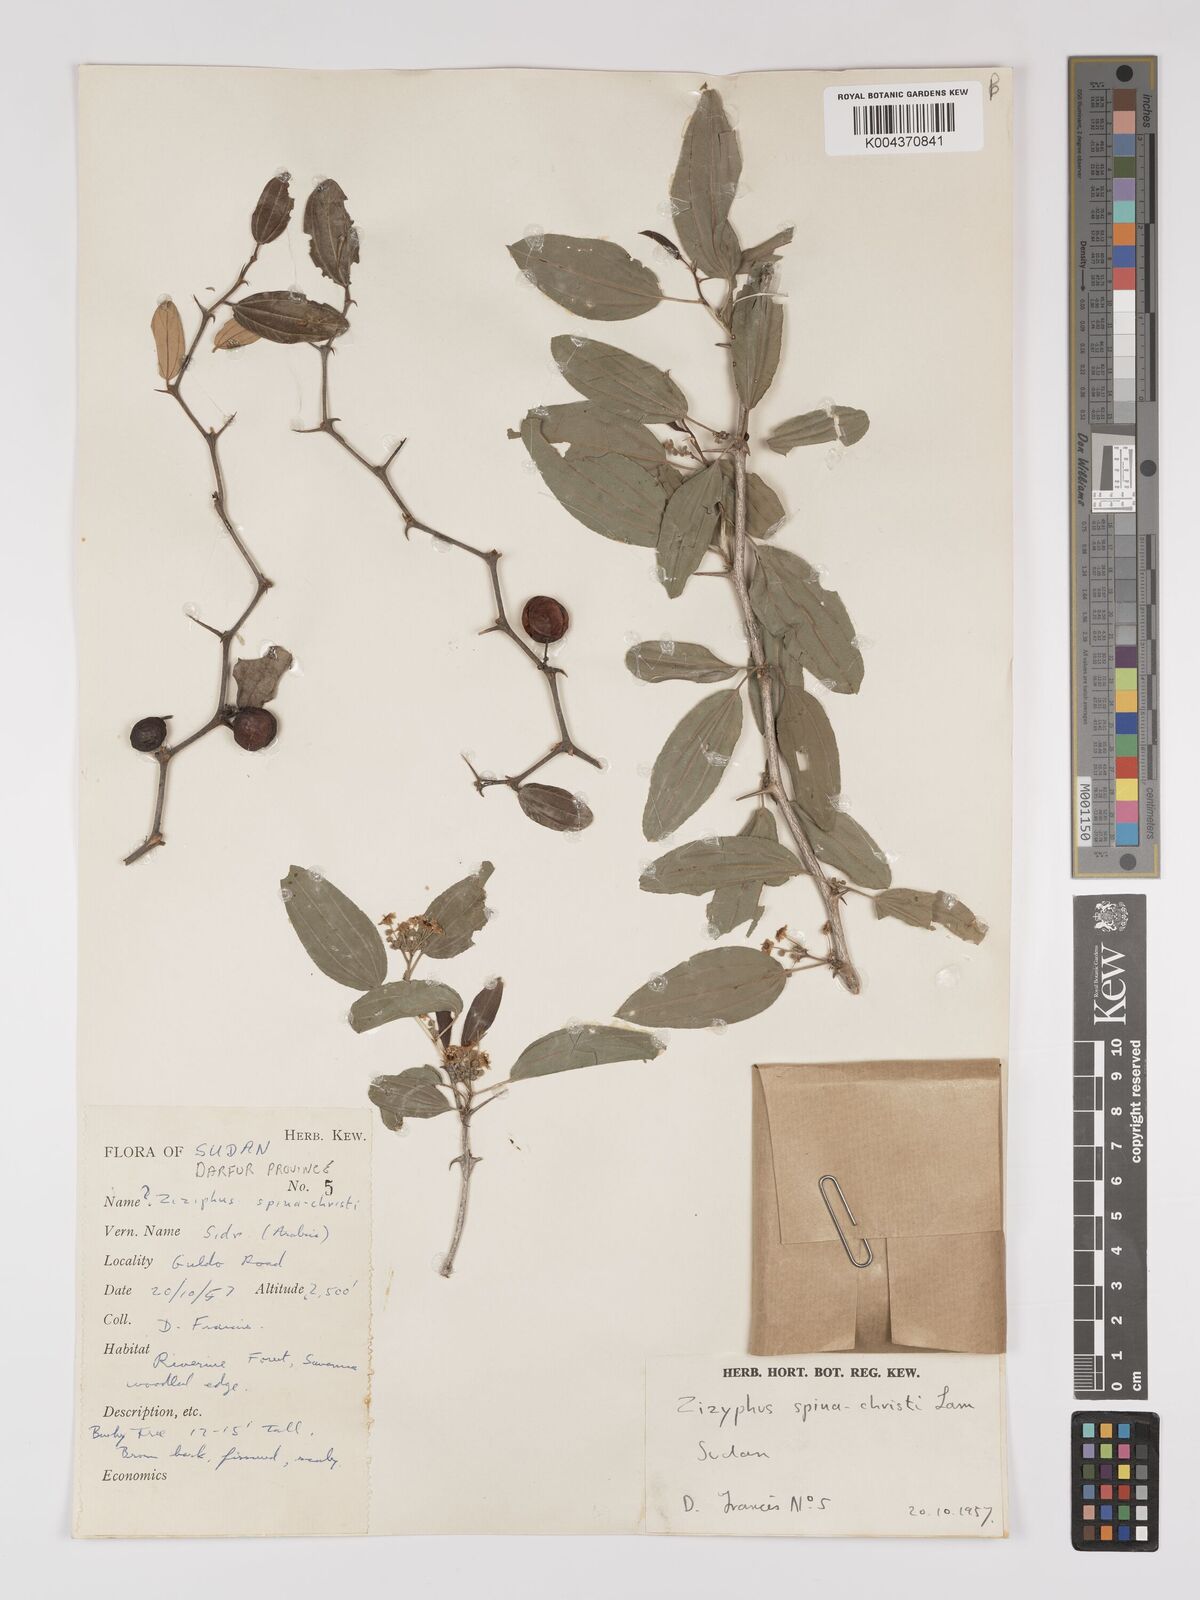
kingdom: Plantae
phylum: Tracheophyta
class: Magnoliopsida
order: Rosales
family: Rhamnaceae
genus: Ziziphus
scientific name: Ziziphus spina-christi
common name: Syrian christ-thorn
